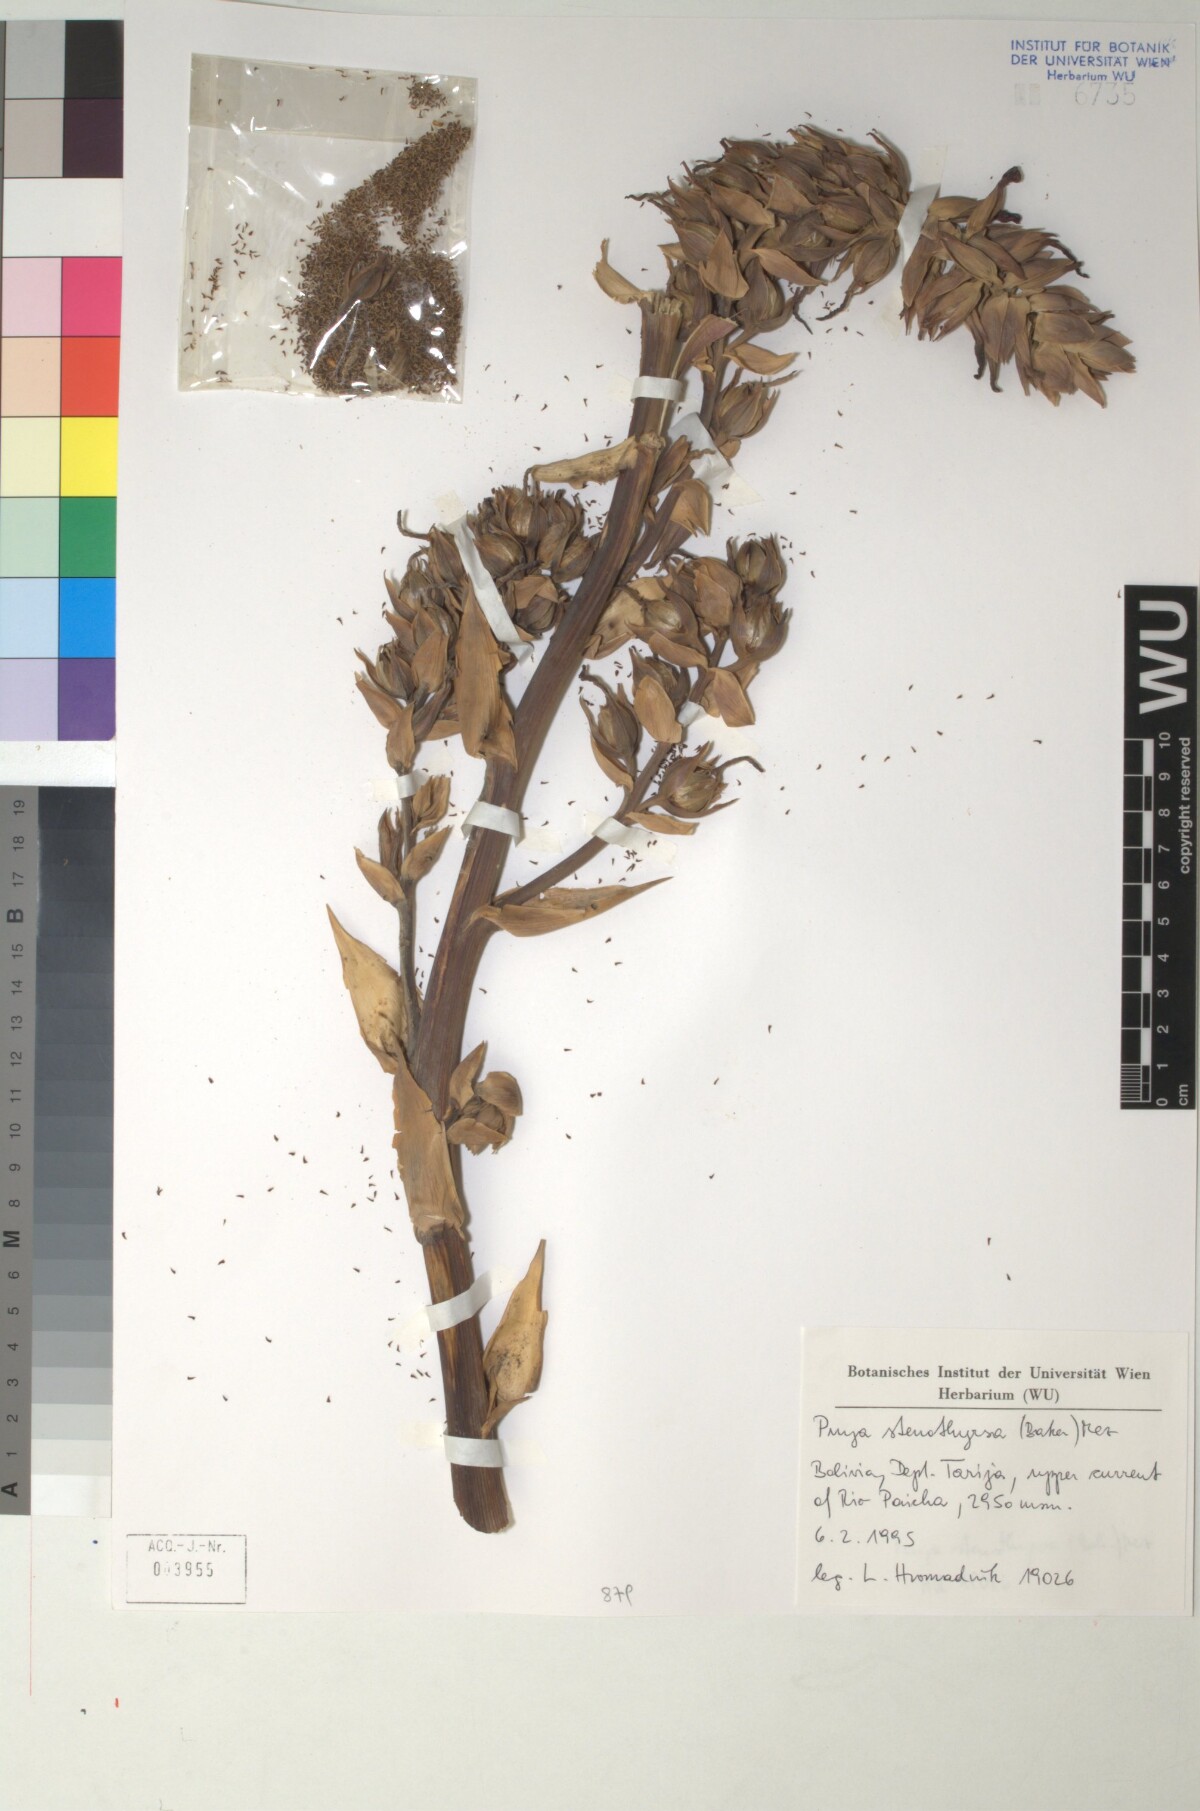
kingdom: Plantae
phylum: Tracheophyta
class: Liliopsida
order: Poales
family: Bromeliaceae
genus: Puya
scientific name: Puya stenothyrsa
